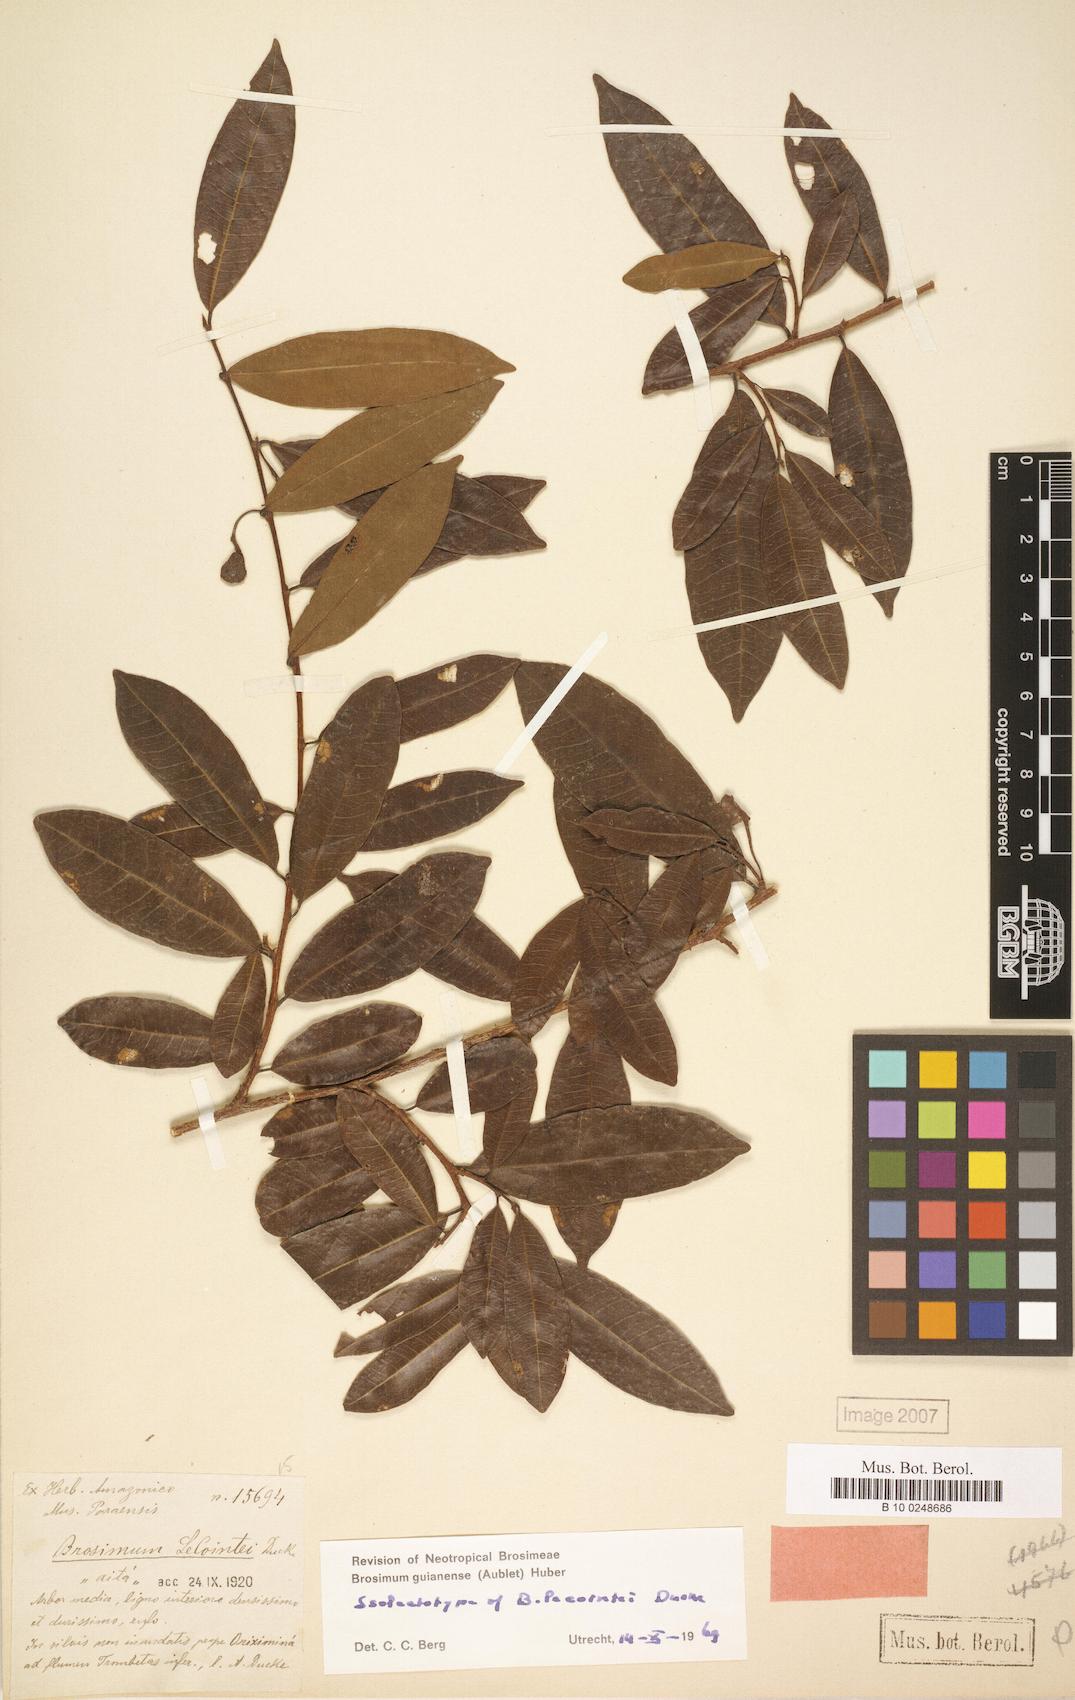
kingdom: Plantae
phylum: Tracheophyta
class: Magnoliopsida
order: Rosales
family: Moraceae
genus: Brosimum
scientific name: Brosimum guianense
